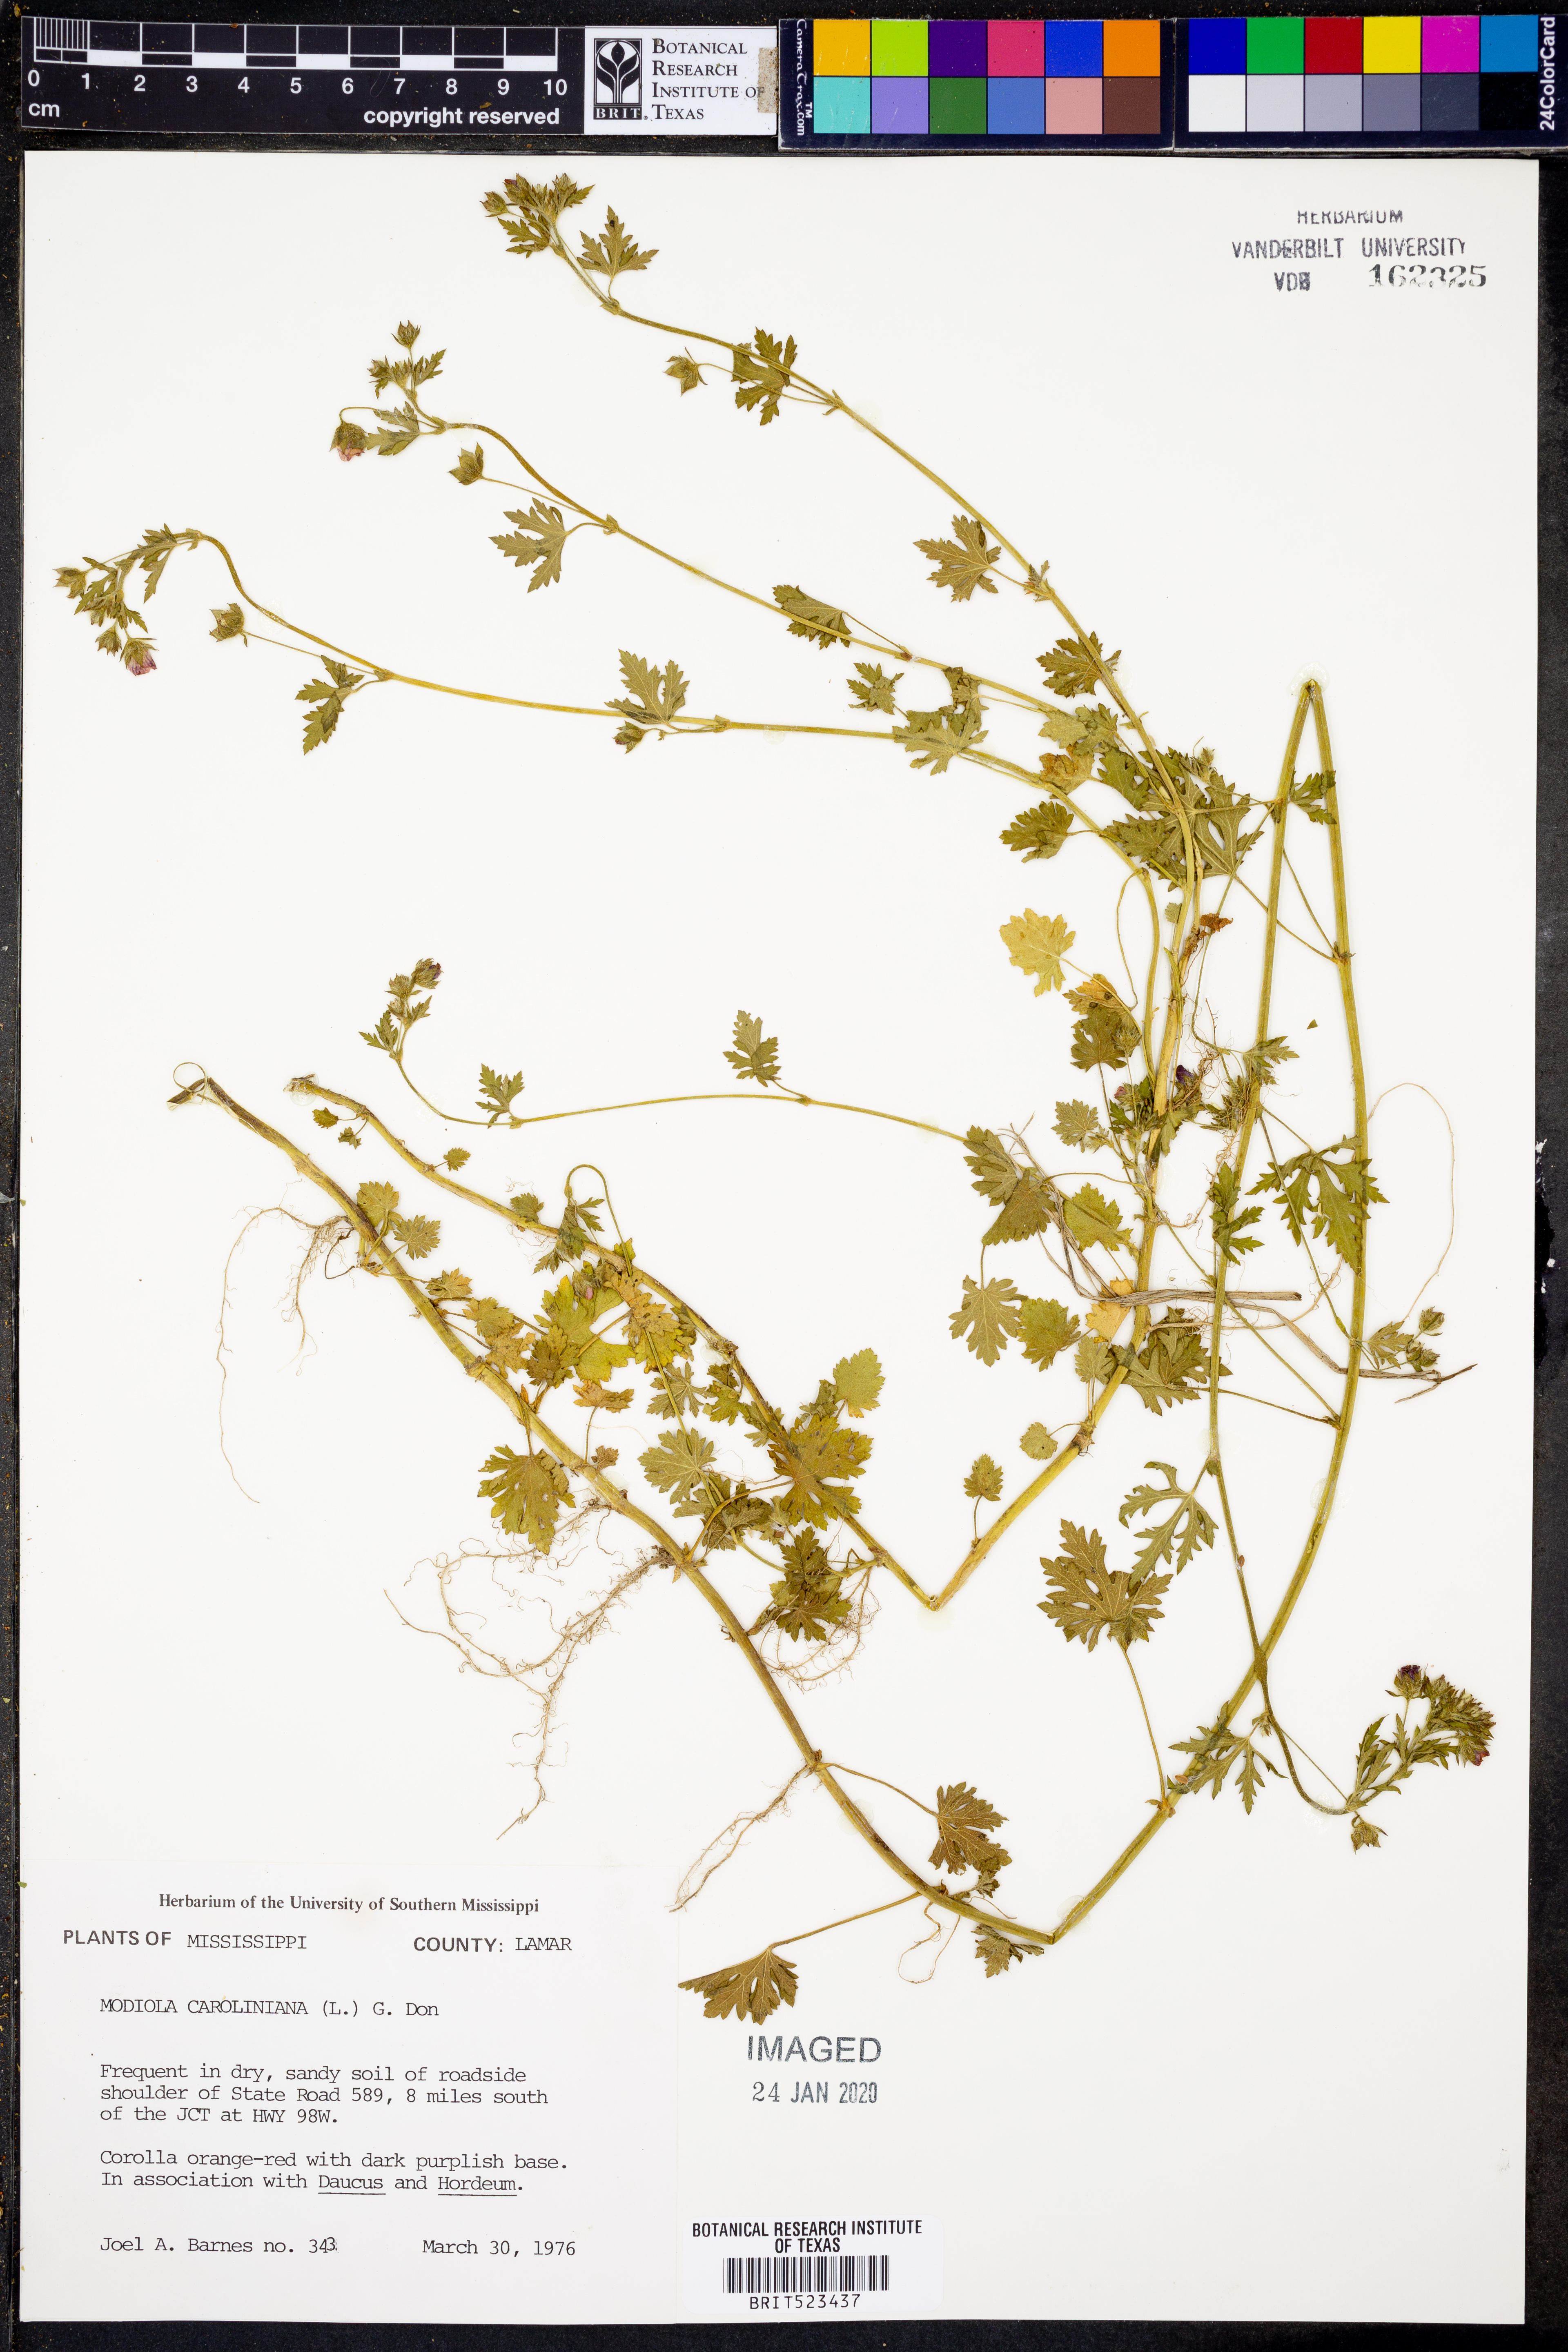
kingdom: Plantae
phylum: Tracheophyta
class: Magnoliopsida
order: Malvales
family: Malvaceae
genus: Modiola
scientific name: Modiola caroliniana
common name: Carolina bristlemallow
